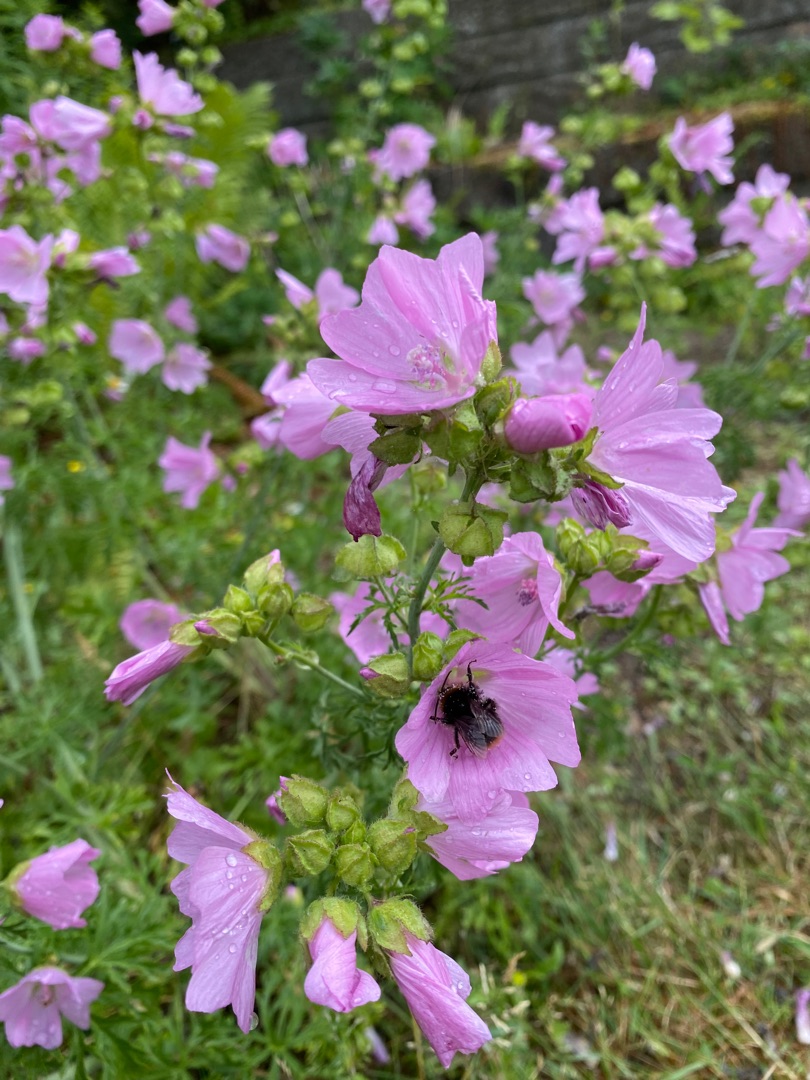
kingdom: Plantae
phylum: Tracheophyta
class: Magnoliopsida
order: Malvales
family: Malvaceae
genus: Malva
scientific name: Malva moschata
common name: Moskus-katost
